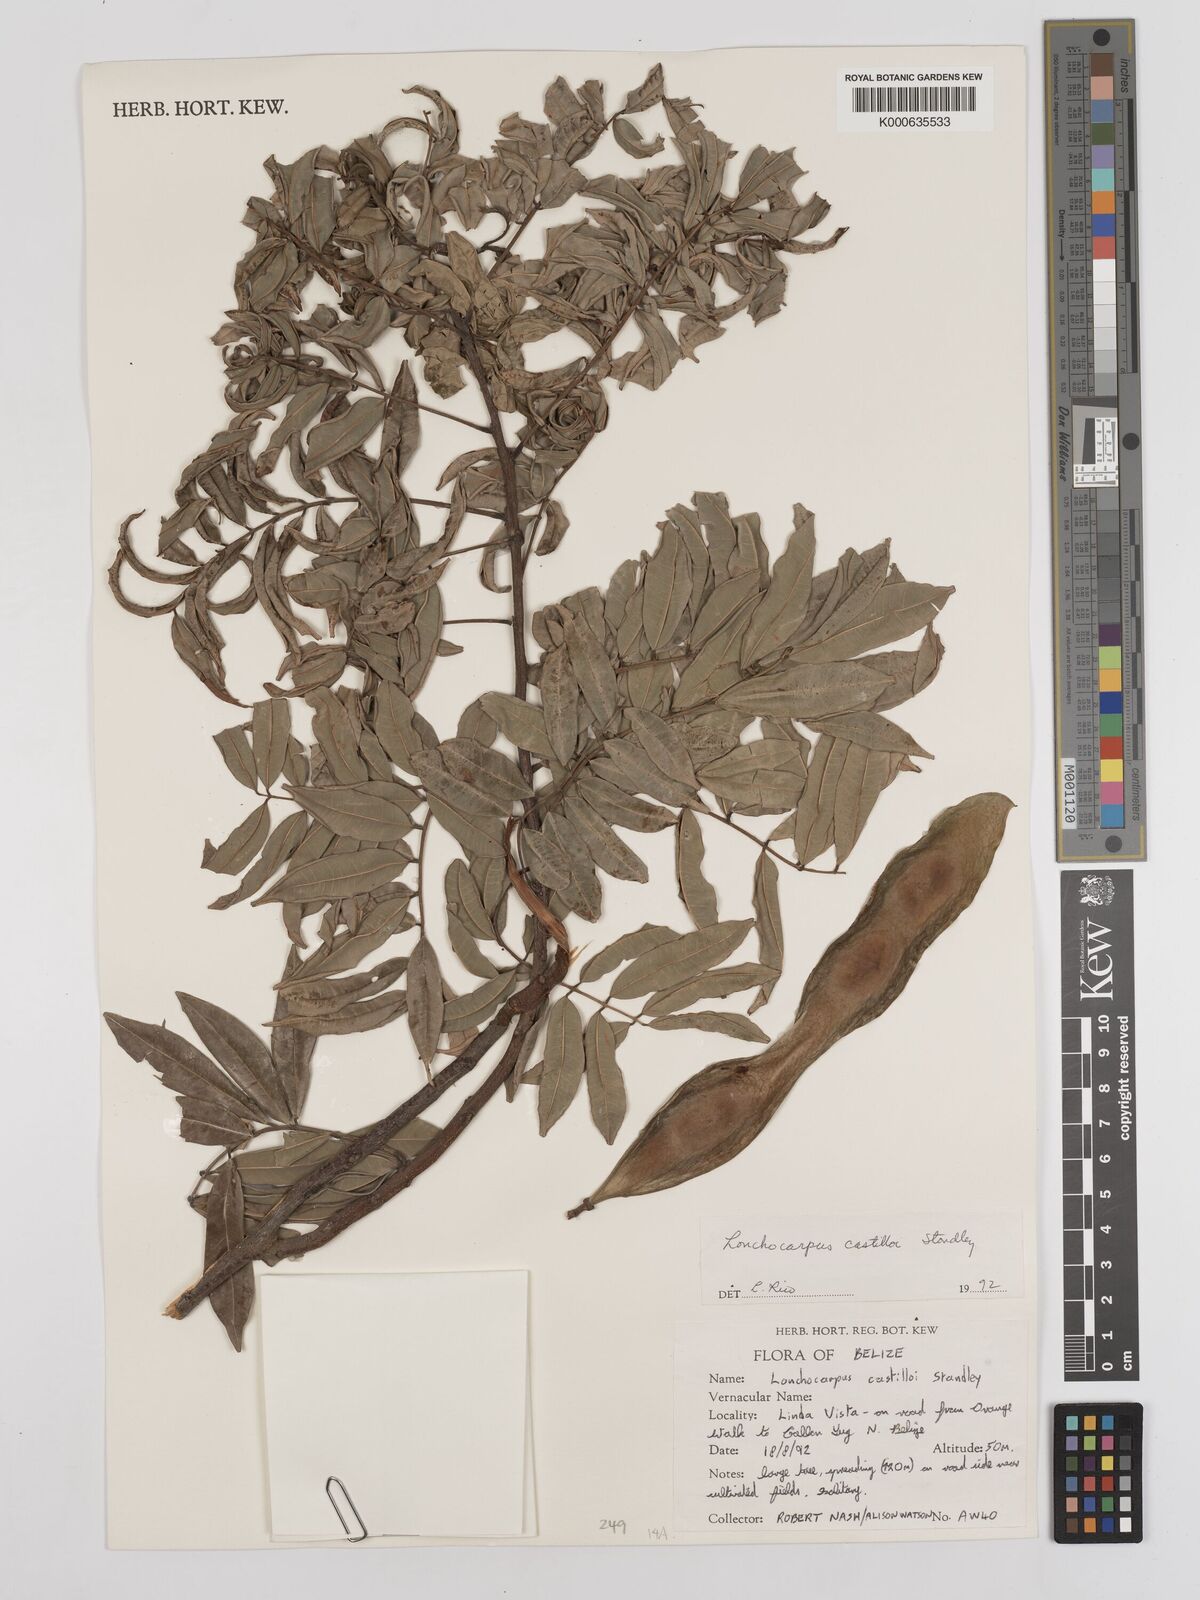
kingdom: Plantae
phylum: Tracheophyta
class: Magnoliopsida
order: Fabales
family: Fabaceae
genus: Lonchocarpus
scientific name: Lonchocarpus castilloi
